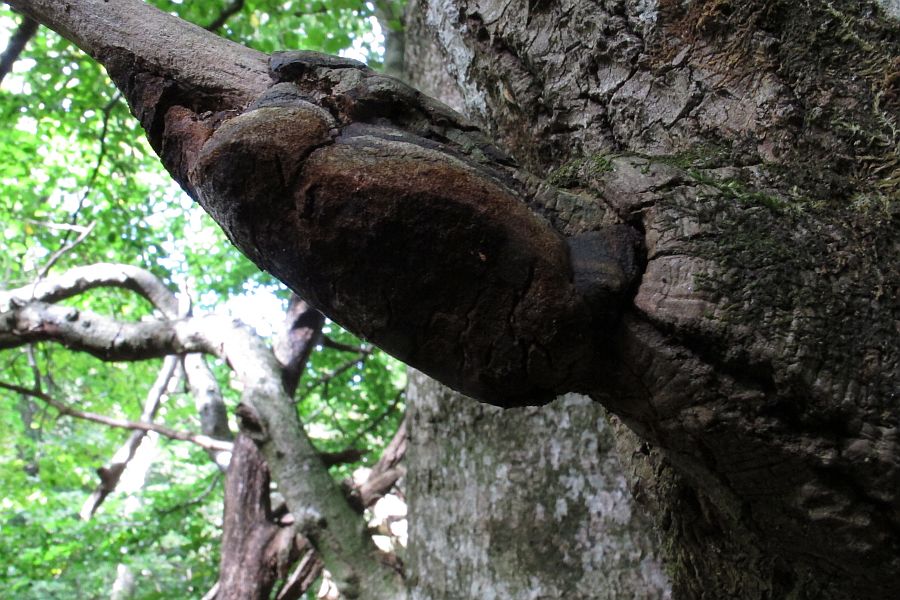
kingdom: Fungi
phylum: Basidiomycota
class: Agaricomycetes
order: Hymenochaetales
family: Hymenochaetaceae
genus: Phellinus
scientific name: Phellinus tremulae
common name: aspe-ildporesvamp
